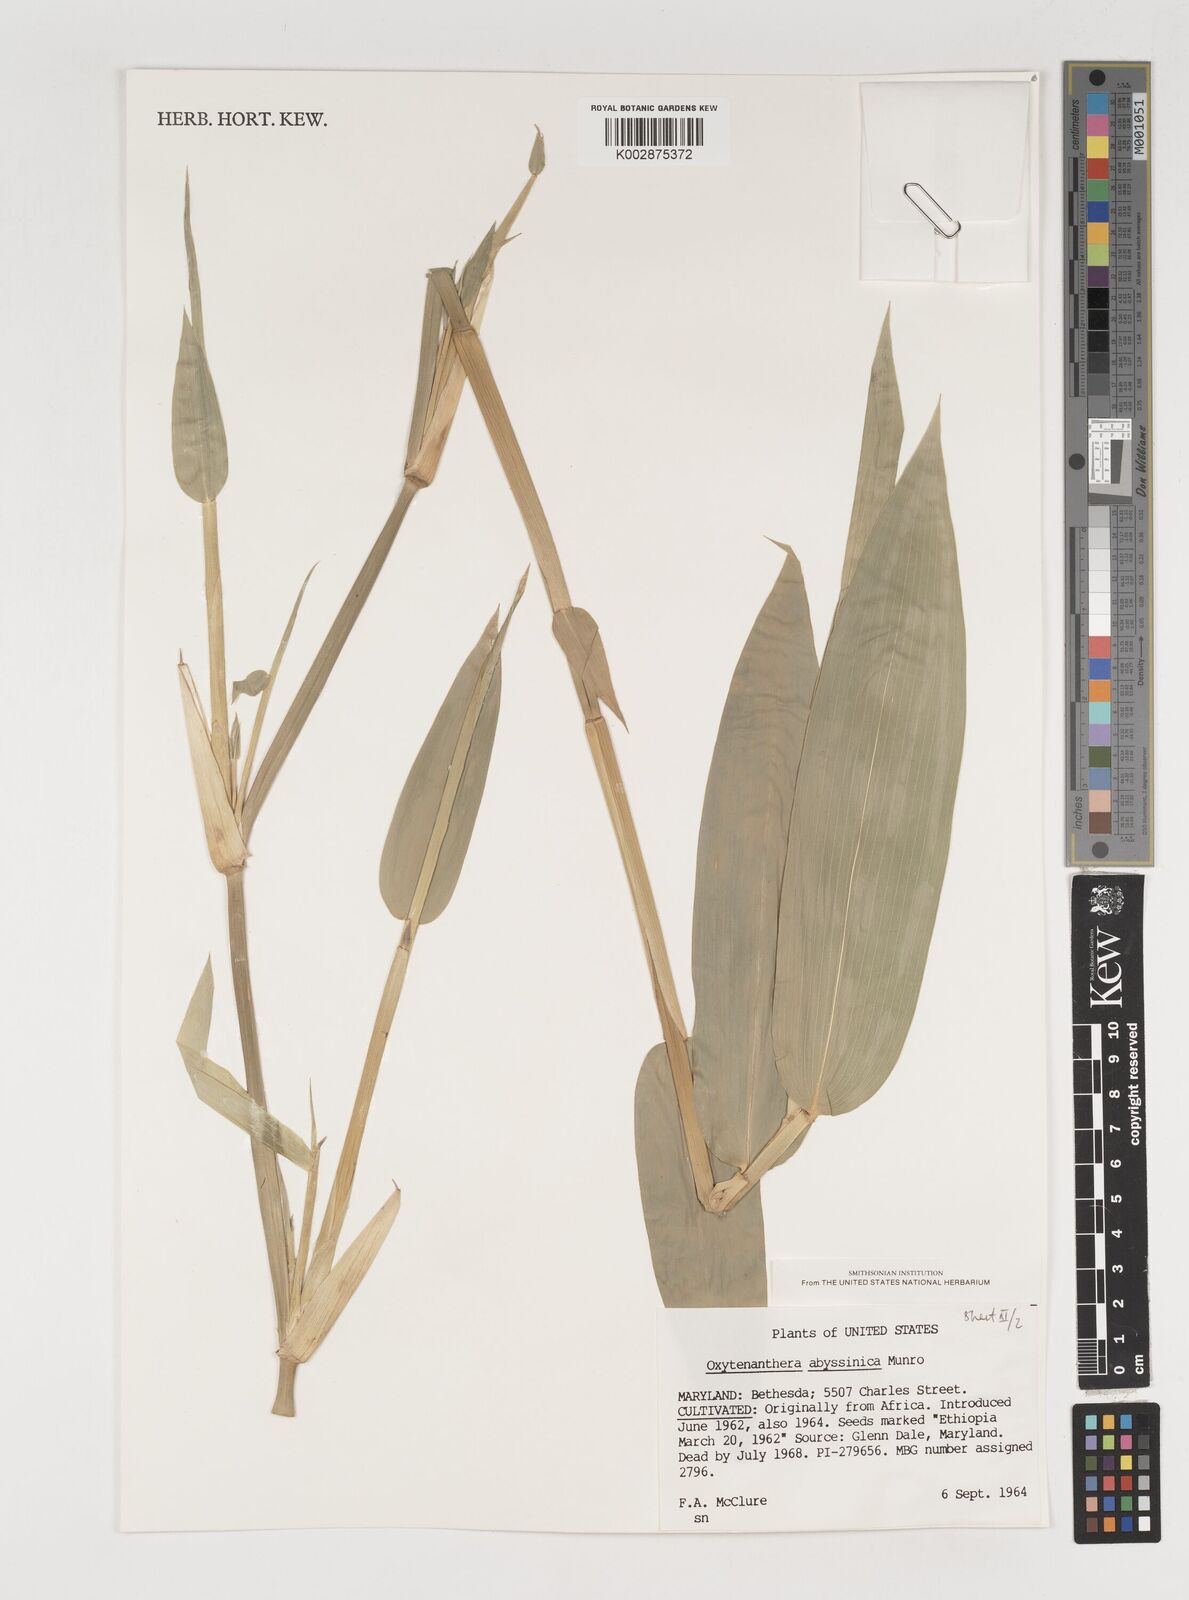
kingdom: Plantae
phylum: Tracheophyta
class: Liliopsida
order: Poales
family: Poaceae
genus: Oxytenanthera
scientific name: Oxytenanthera abyssinica
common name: Wine bamboo
